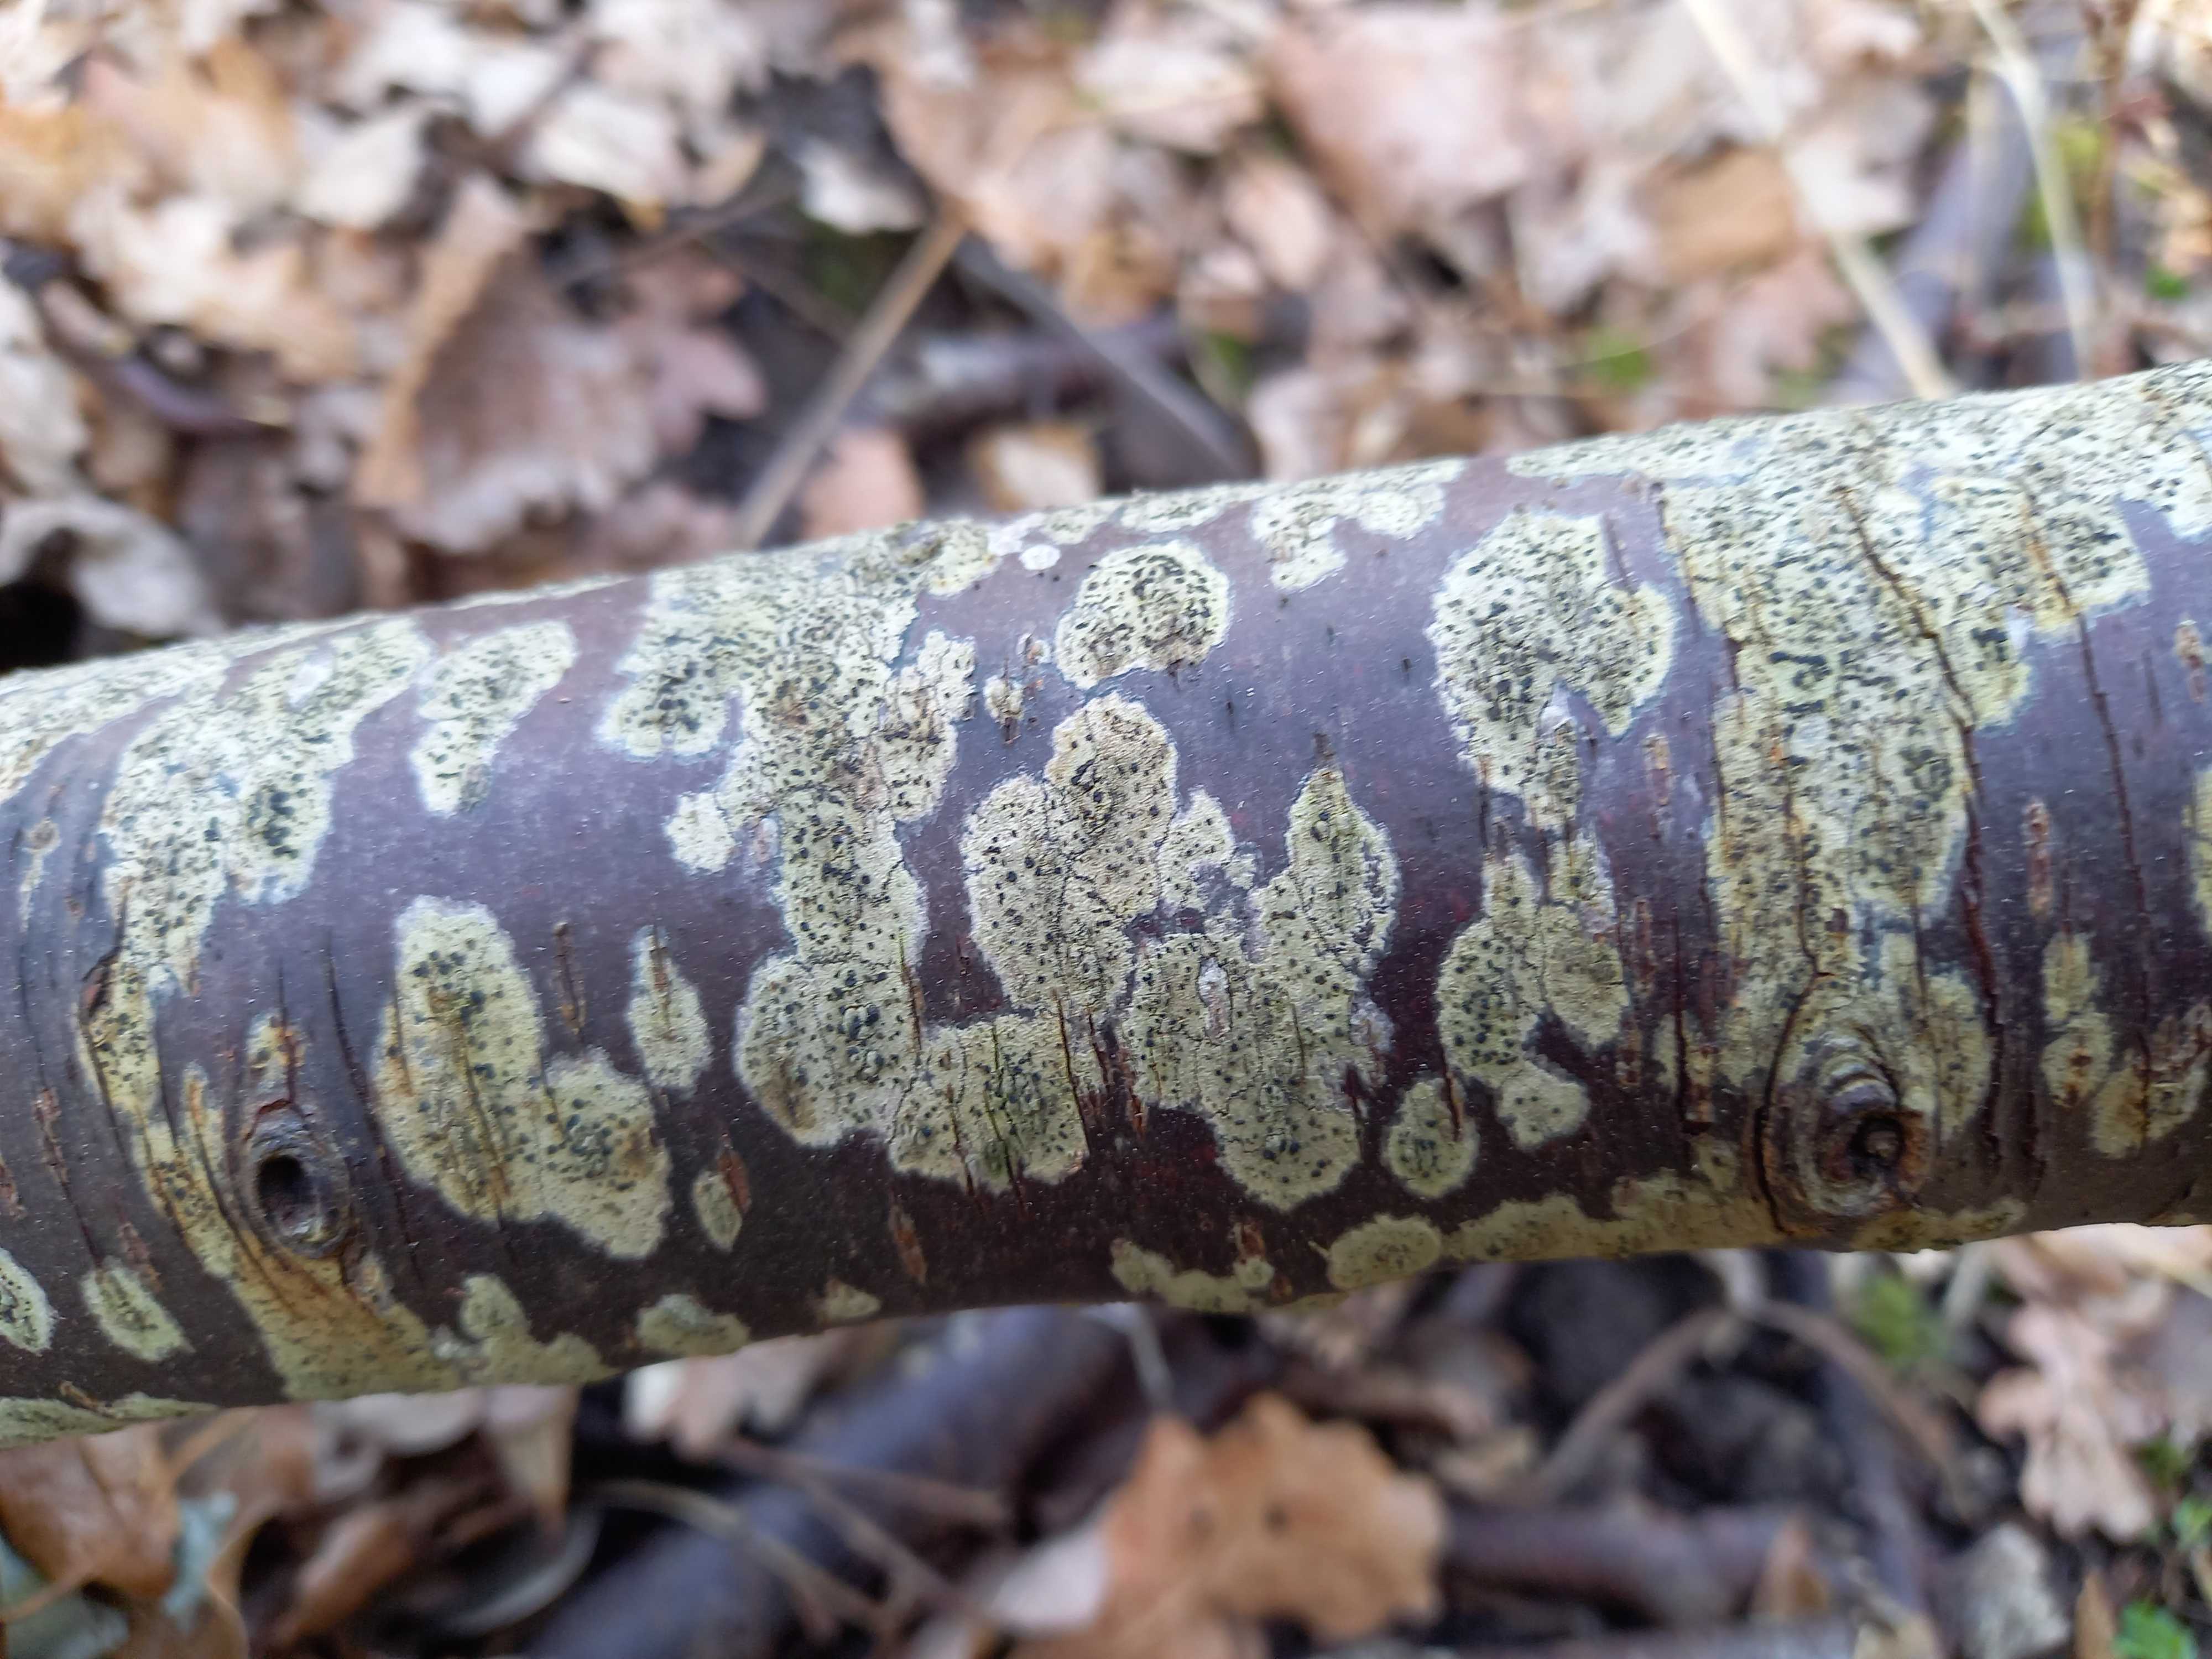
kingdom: Fungi
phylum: Ascomycota
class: Lecanoromycetes
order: Lecanorales
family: Lecanoraceae
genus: Lecidella
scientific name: Lecidella elaeochroma
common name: grågrøn skivelav
